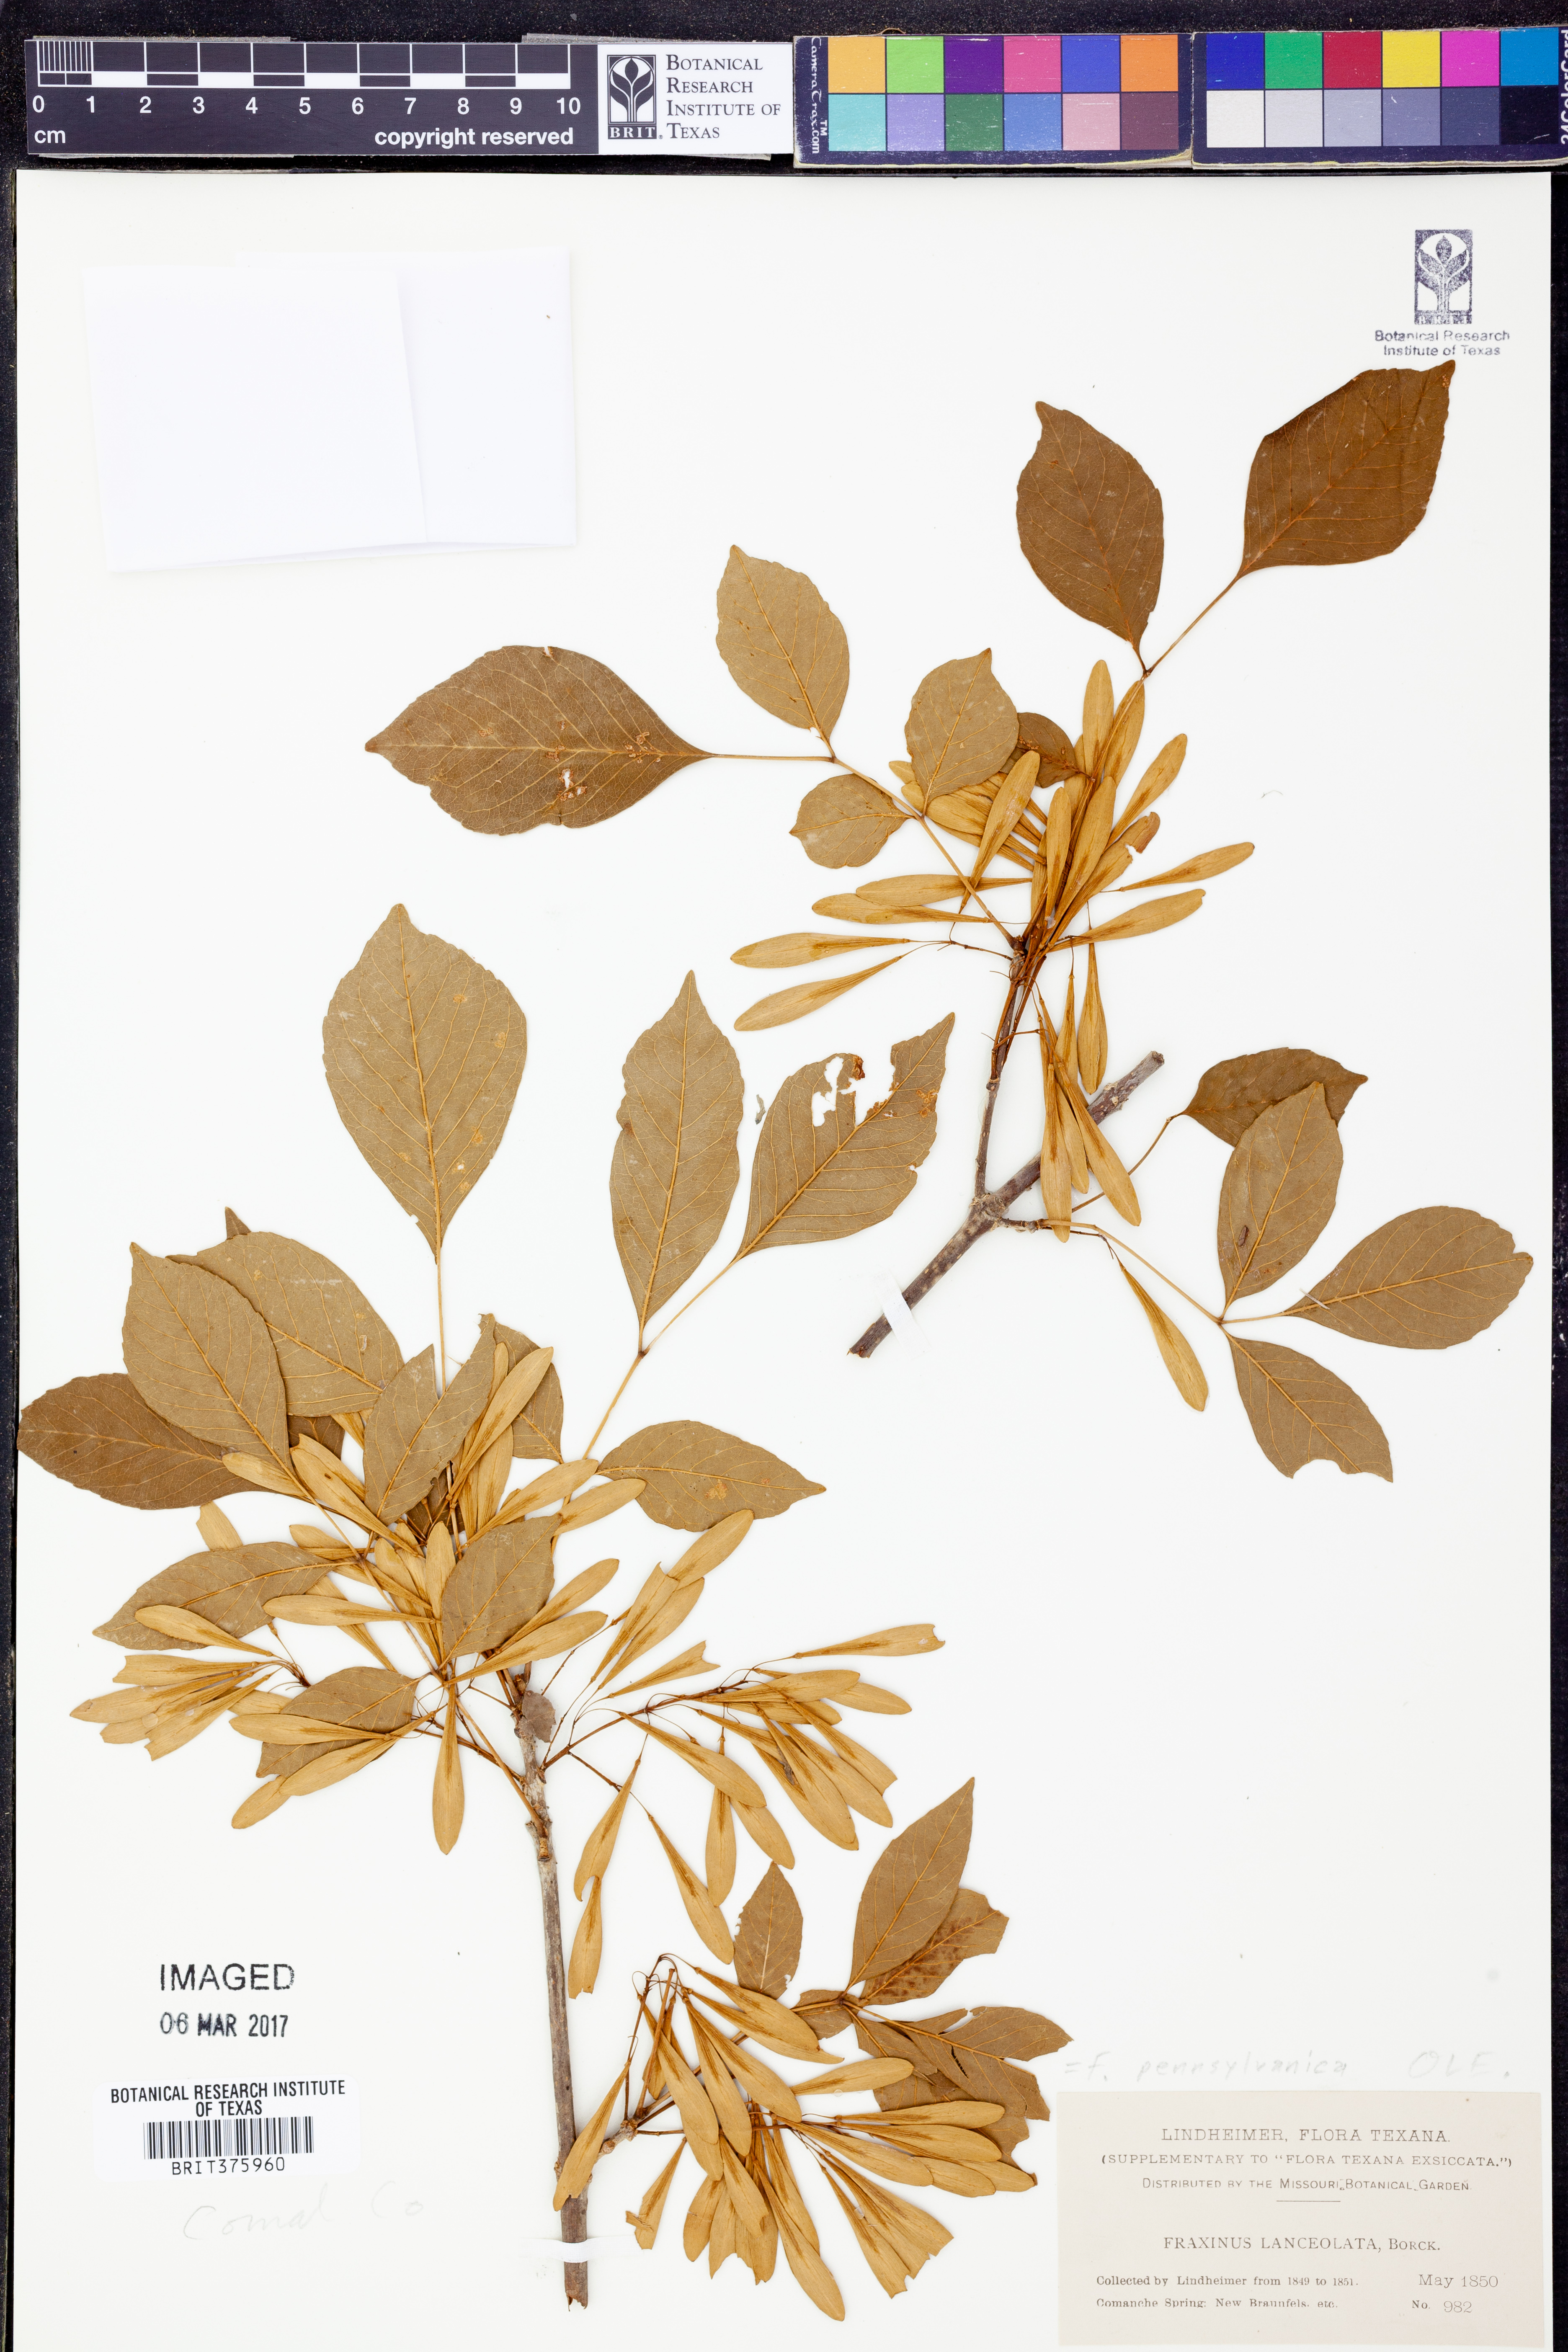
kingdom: Plantae
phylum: Tracheophyta
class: Magnoliopsida
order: Lamiales
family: Oleaceae
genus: Fraxinus
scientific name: Fraxinus pennsylvanica
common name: Green ash
